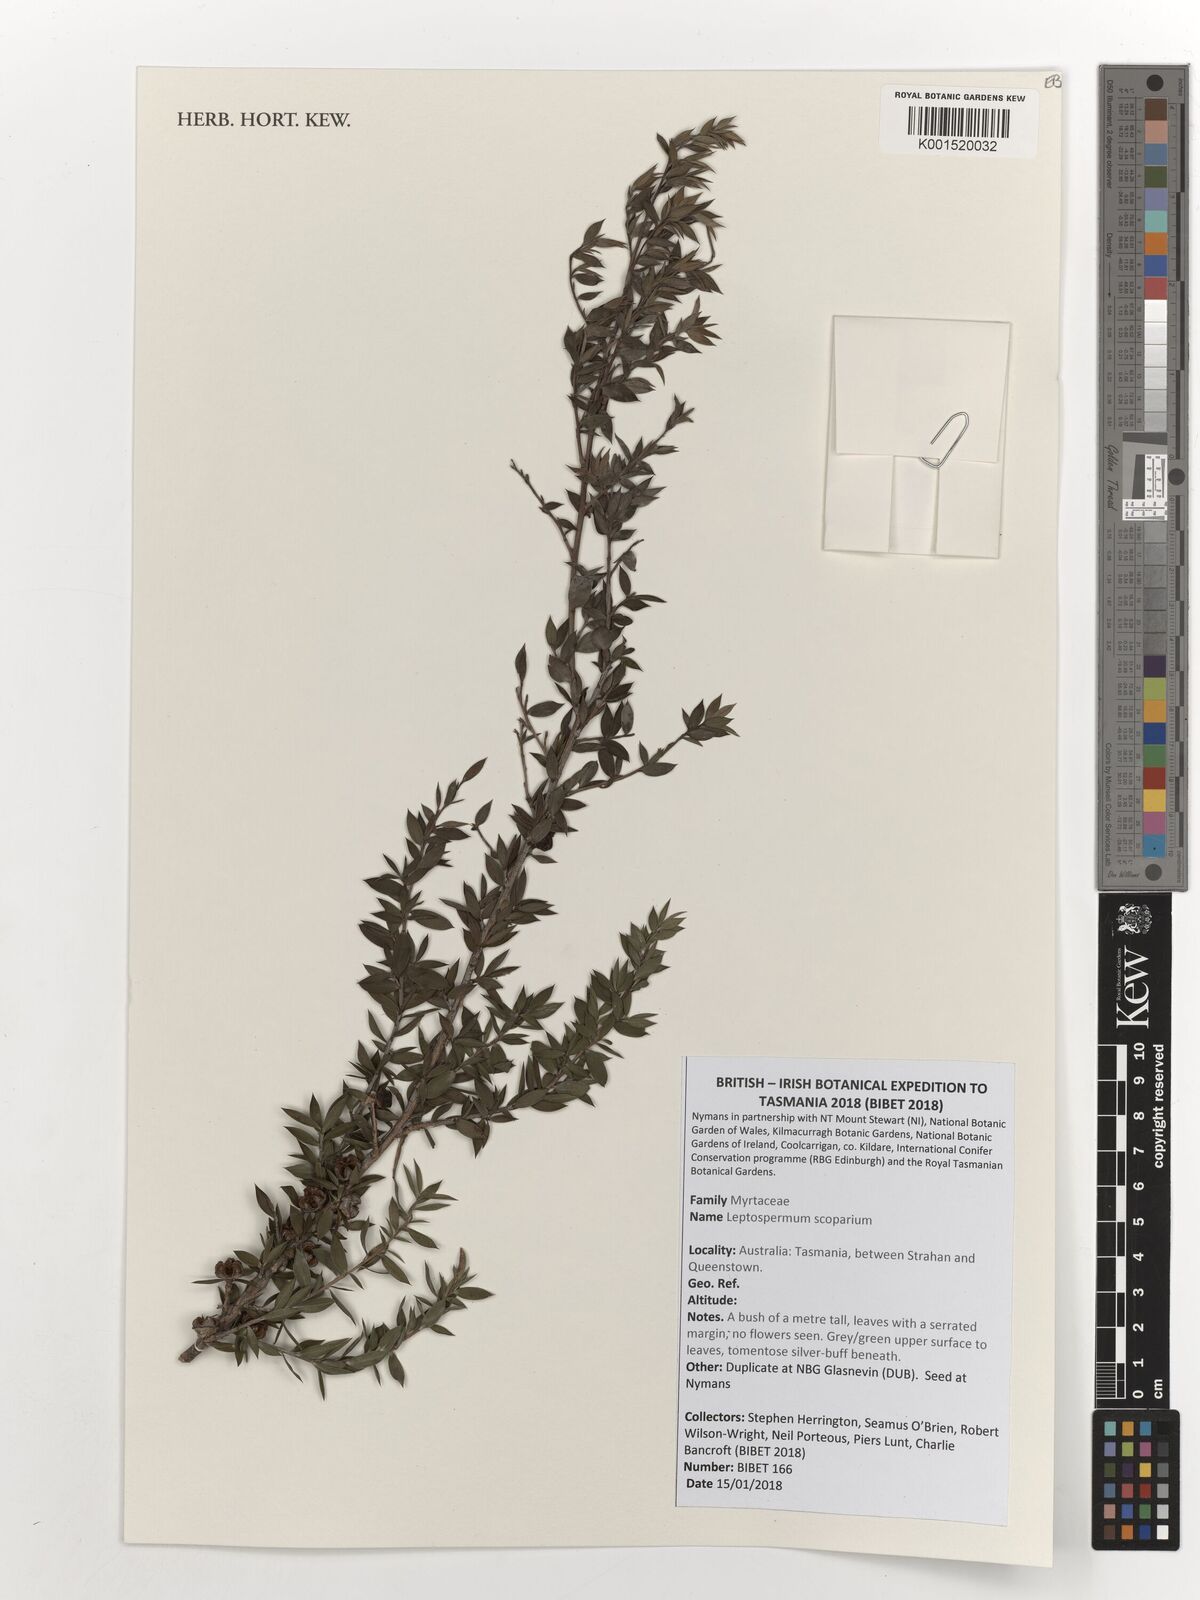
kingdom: Plantae
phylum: Tracheophyta
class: Magnoliopsida
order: Myrtales
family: Myrtaceae
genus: Leptospermum
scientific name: Leptospermum scoparium
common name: Broom tea-tree
